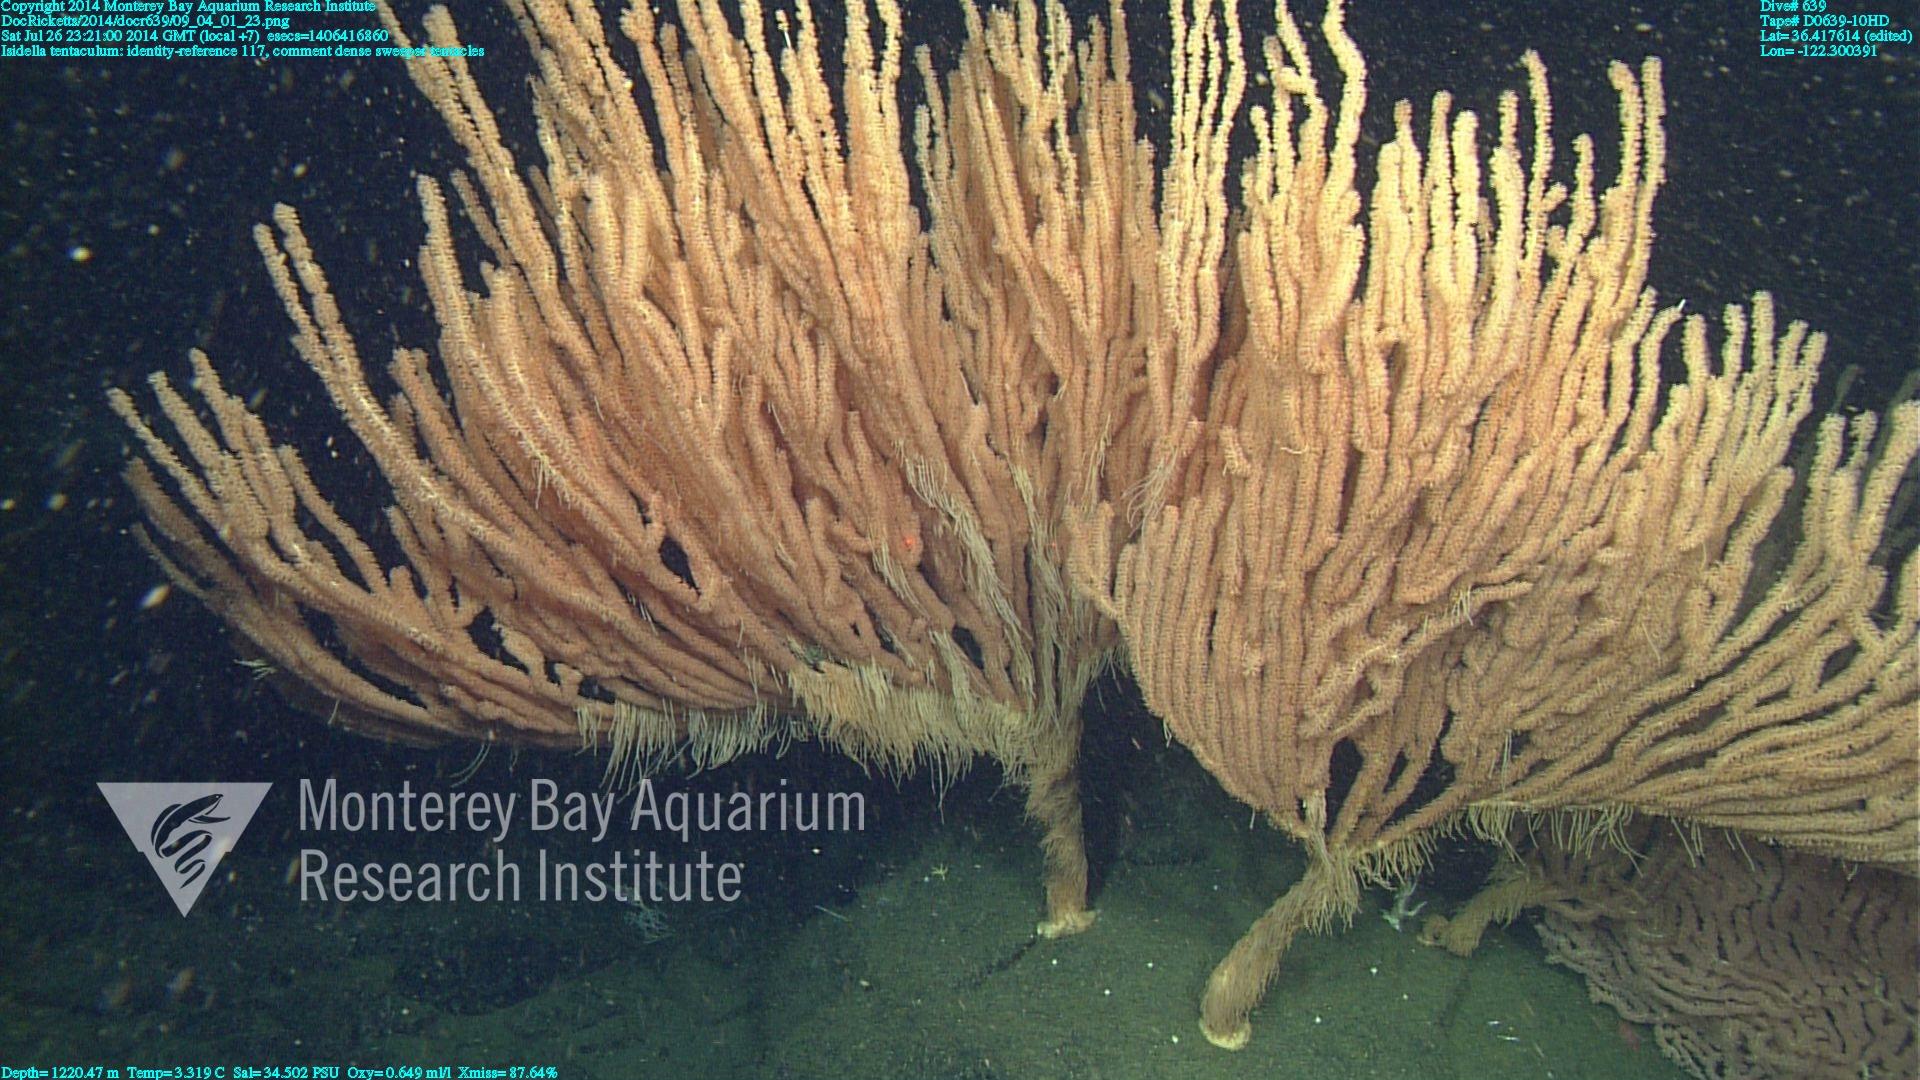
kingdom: Animalia
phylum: Cnidaria
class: Anthozoa
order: Scleralcyonacea
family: Keratoisididae
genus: Isidella
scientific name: Isidella tentaculum
